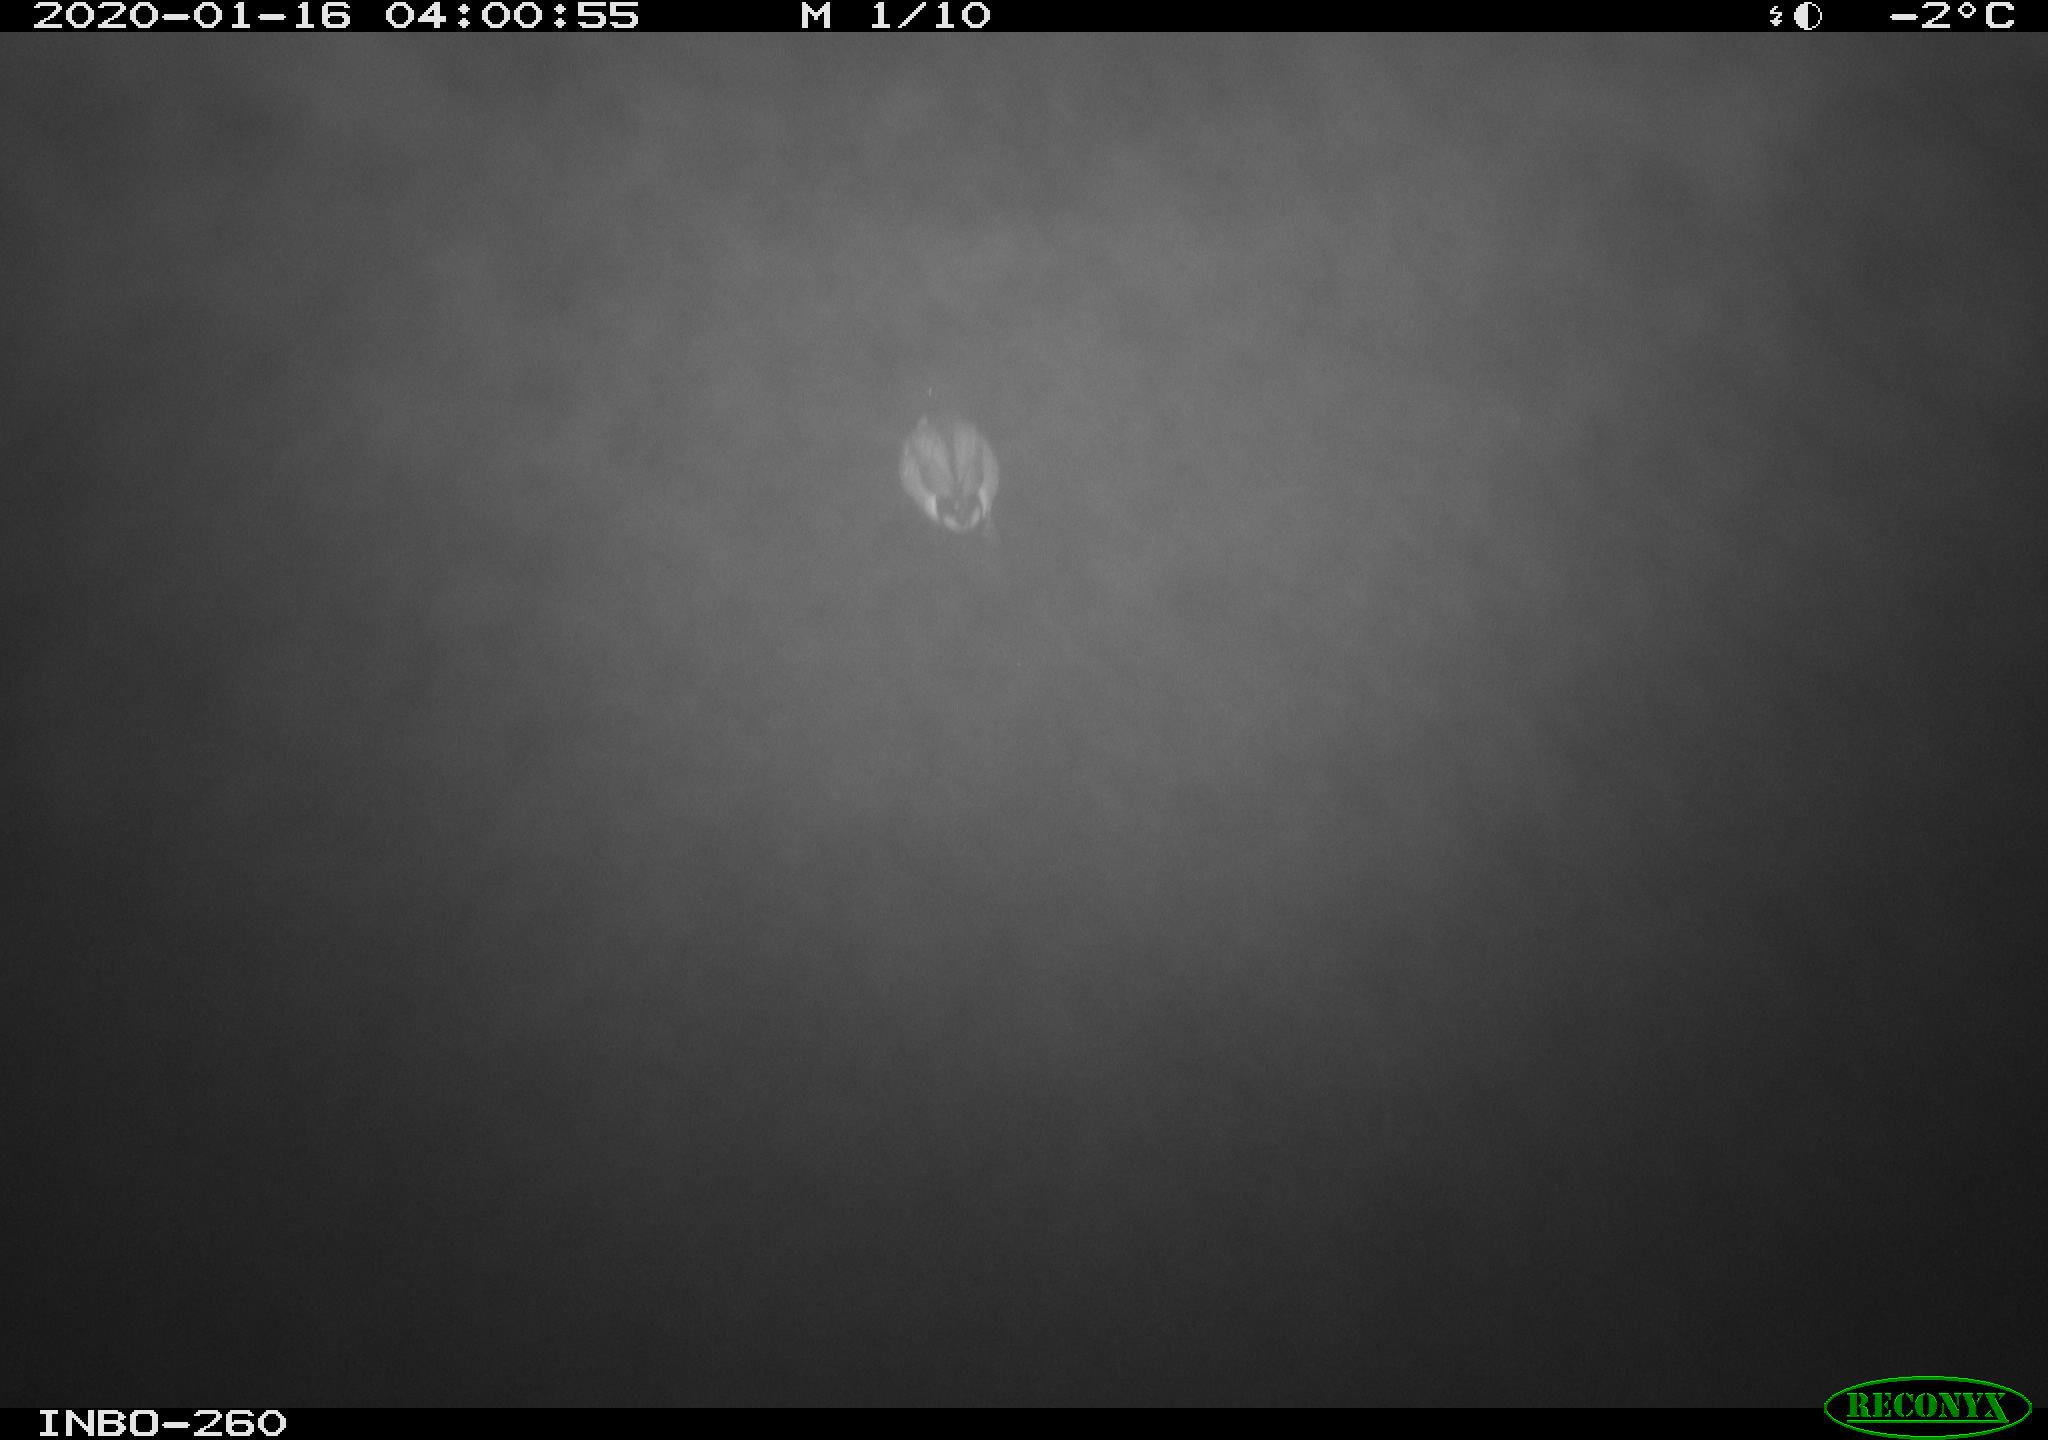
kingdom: Animalia
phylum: Chordata
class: Aves
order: Anseriformes
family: Anatidae
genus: Anas
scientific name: Anas platyrhynchos
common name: Mallard
